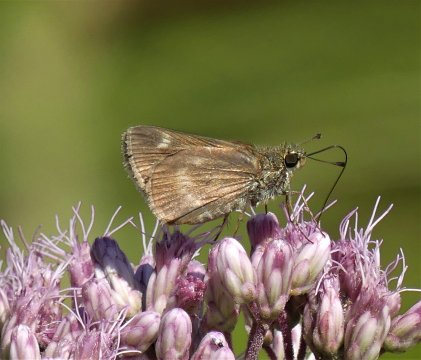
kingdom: Animalia
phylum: Arthropoda
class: Insecta
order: Lepidoptera
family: Hesperiidae
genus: Polites
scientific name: Polites egeremet
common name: Northern Broken-Dash
